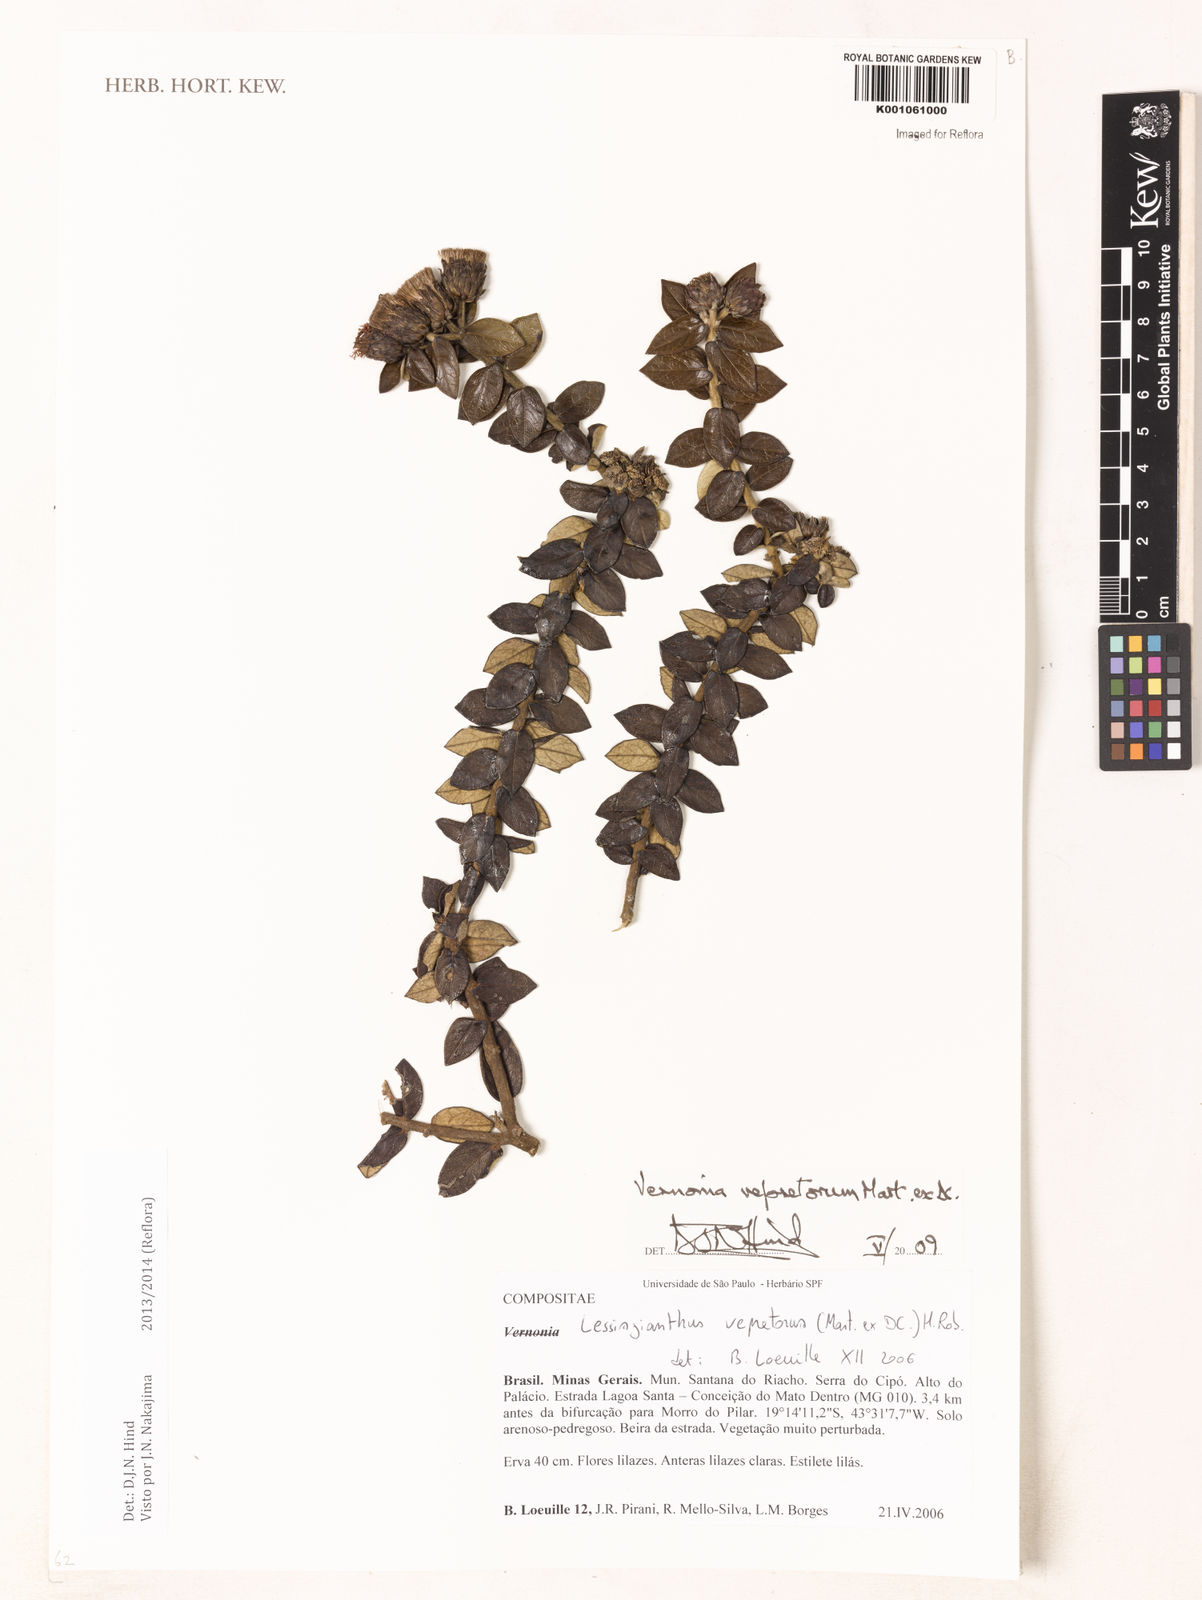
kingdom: Plantae
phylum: Tracheophyta
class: Magnoliopsida
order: Asterales
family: Asteraceae
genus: Lessingianthus
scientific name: Lessingianthus vepretorum
